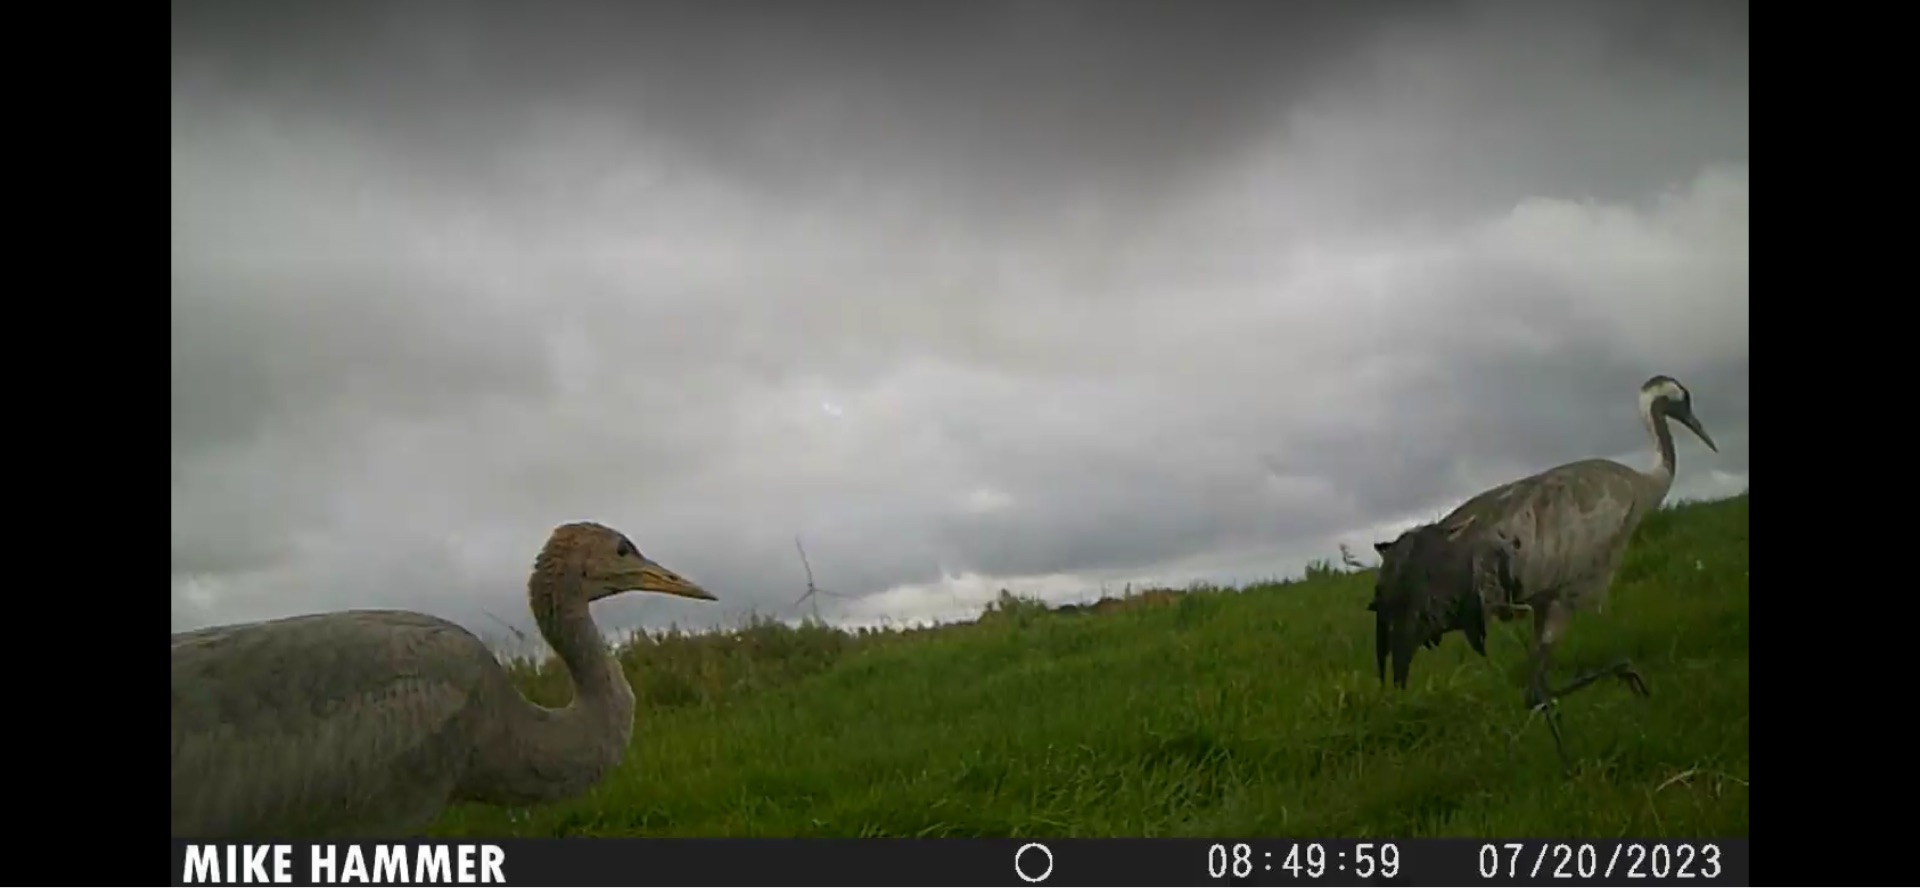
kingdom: Animalia
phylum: Chordata
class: Aves
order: Gruiformes
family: Gruidae
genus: Grus
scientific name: Grus grus
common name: Trane
